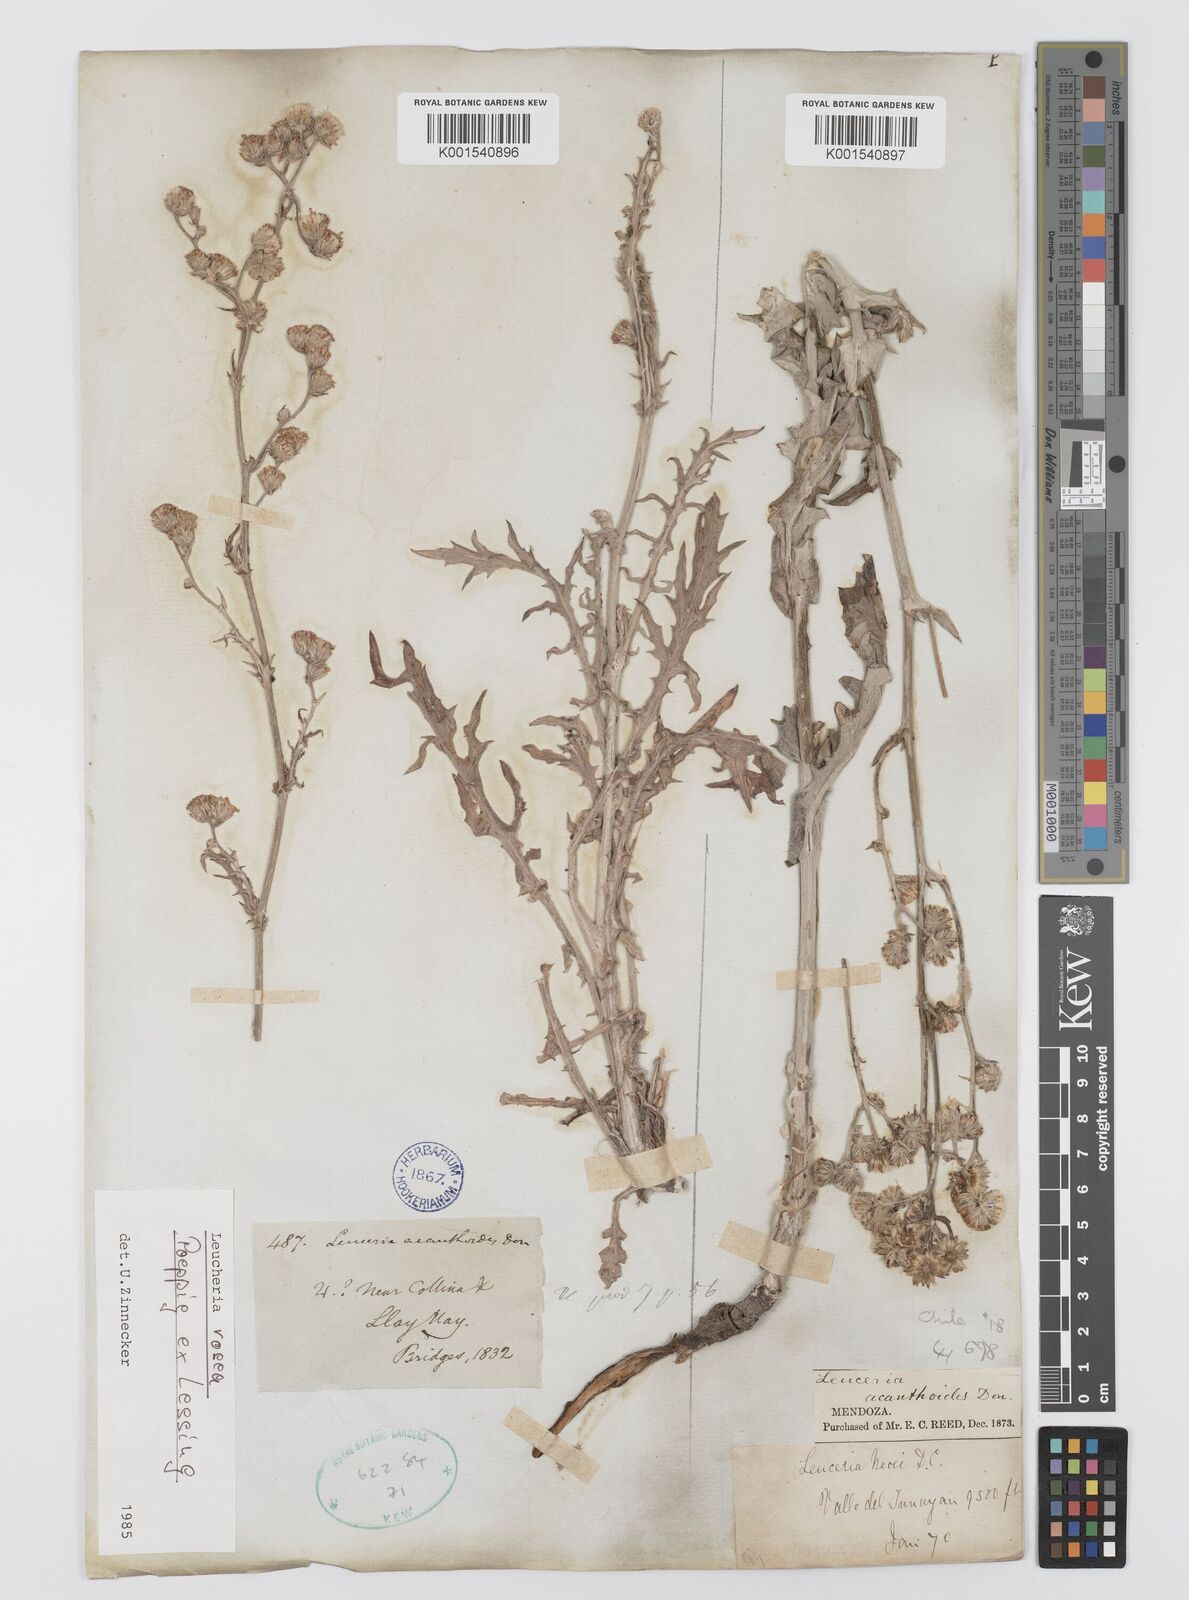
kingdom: Plantae
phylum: Tracheophyta
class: Magnoliopsida
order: Asterales
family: Asteraceae
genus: Leucheria
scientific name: Leucheria rosea
